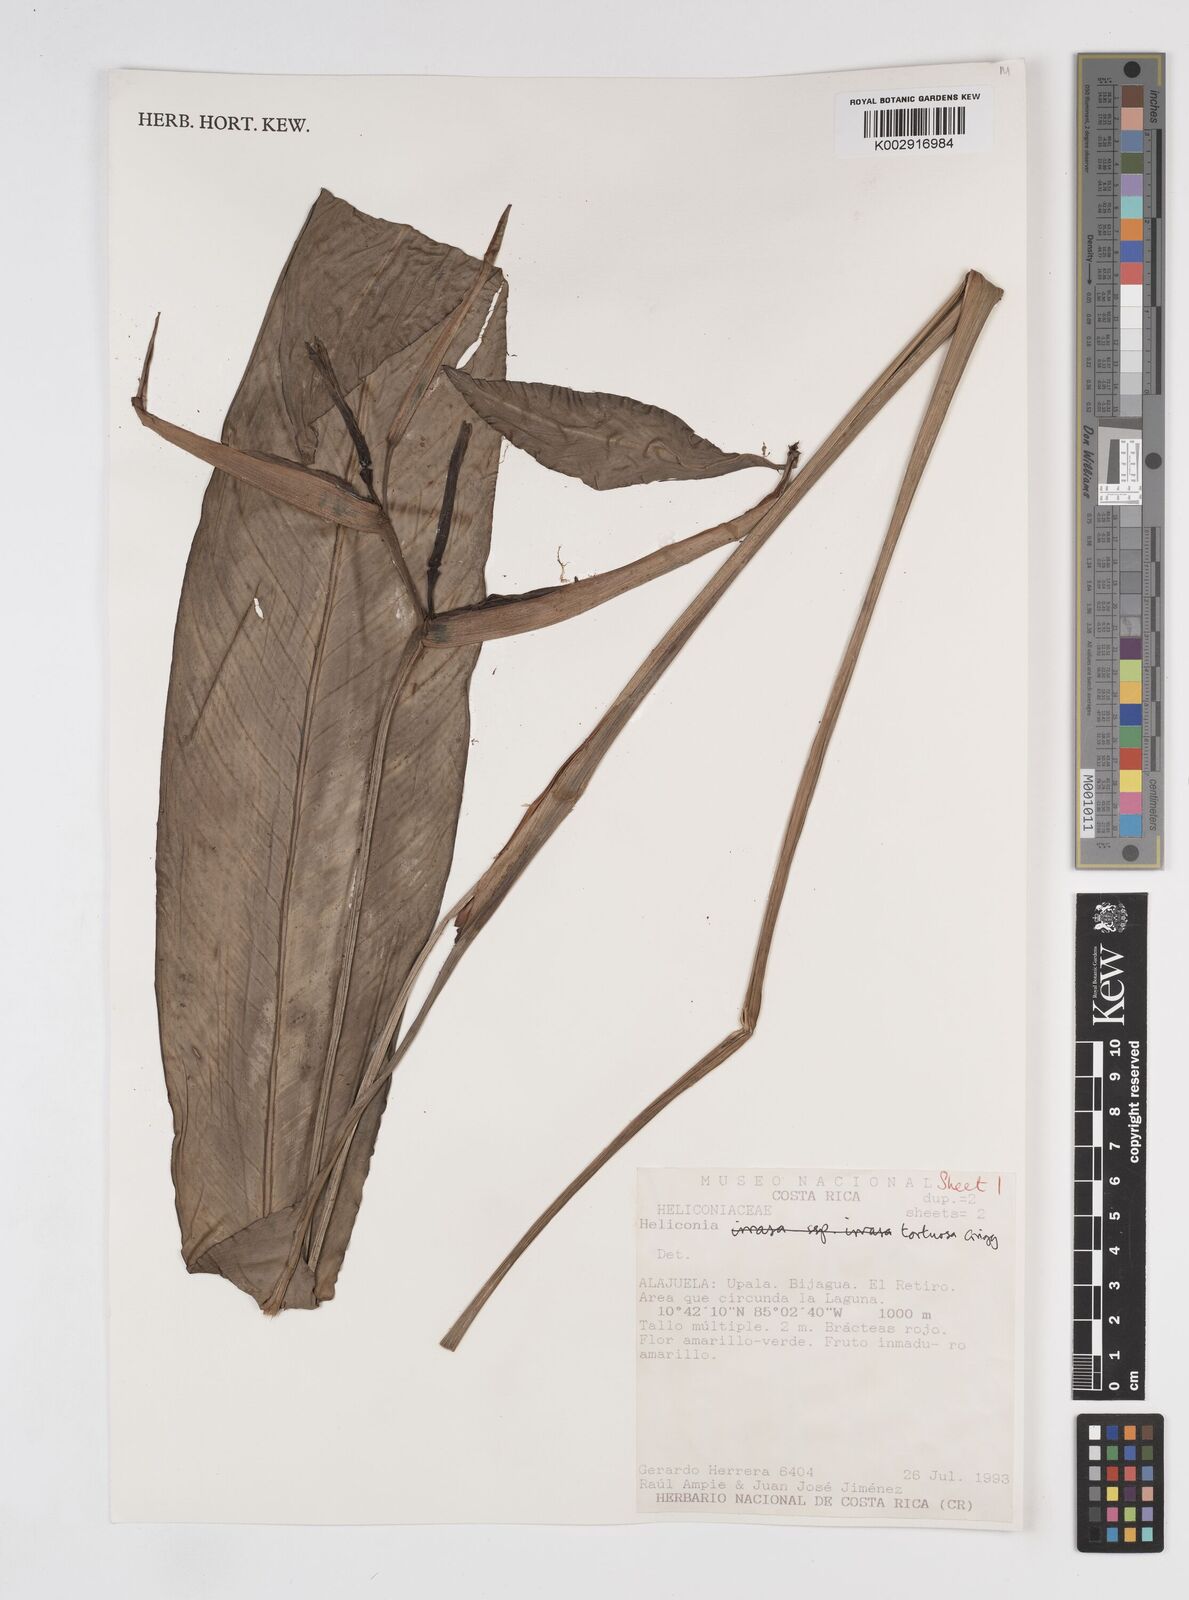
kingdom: Plantae
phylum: Tracheophyta
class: Liliopsida
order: Zingiberales
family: Heliconiaceae
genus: Heliconia
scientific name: Heliconia tortuosa
